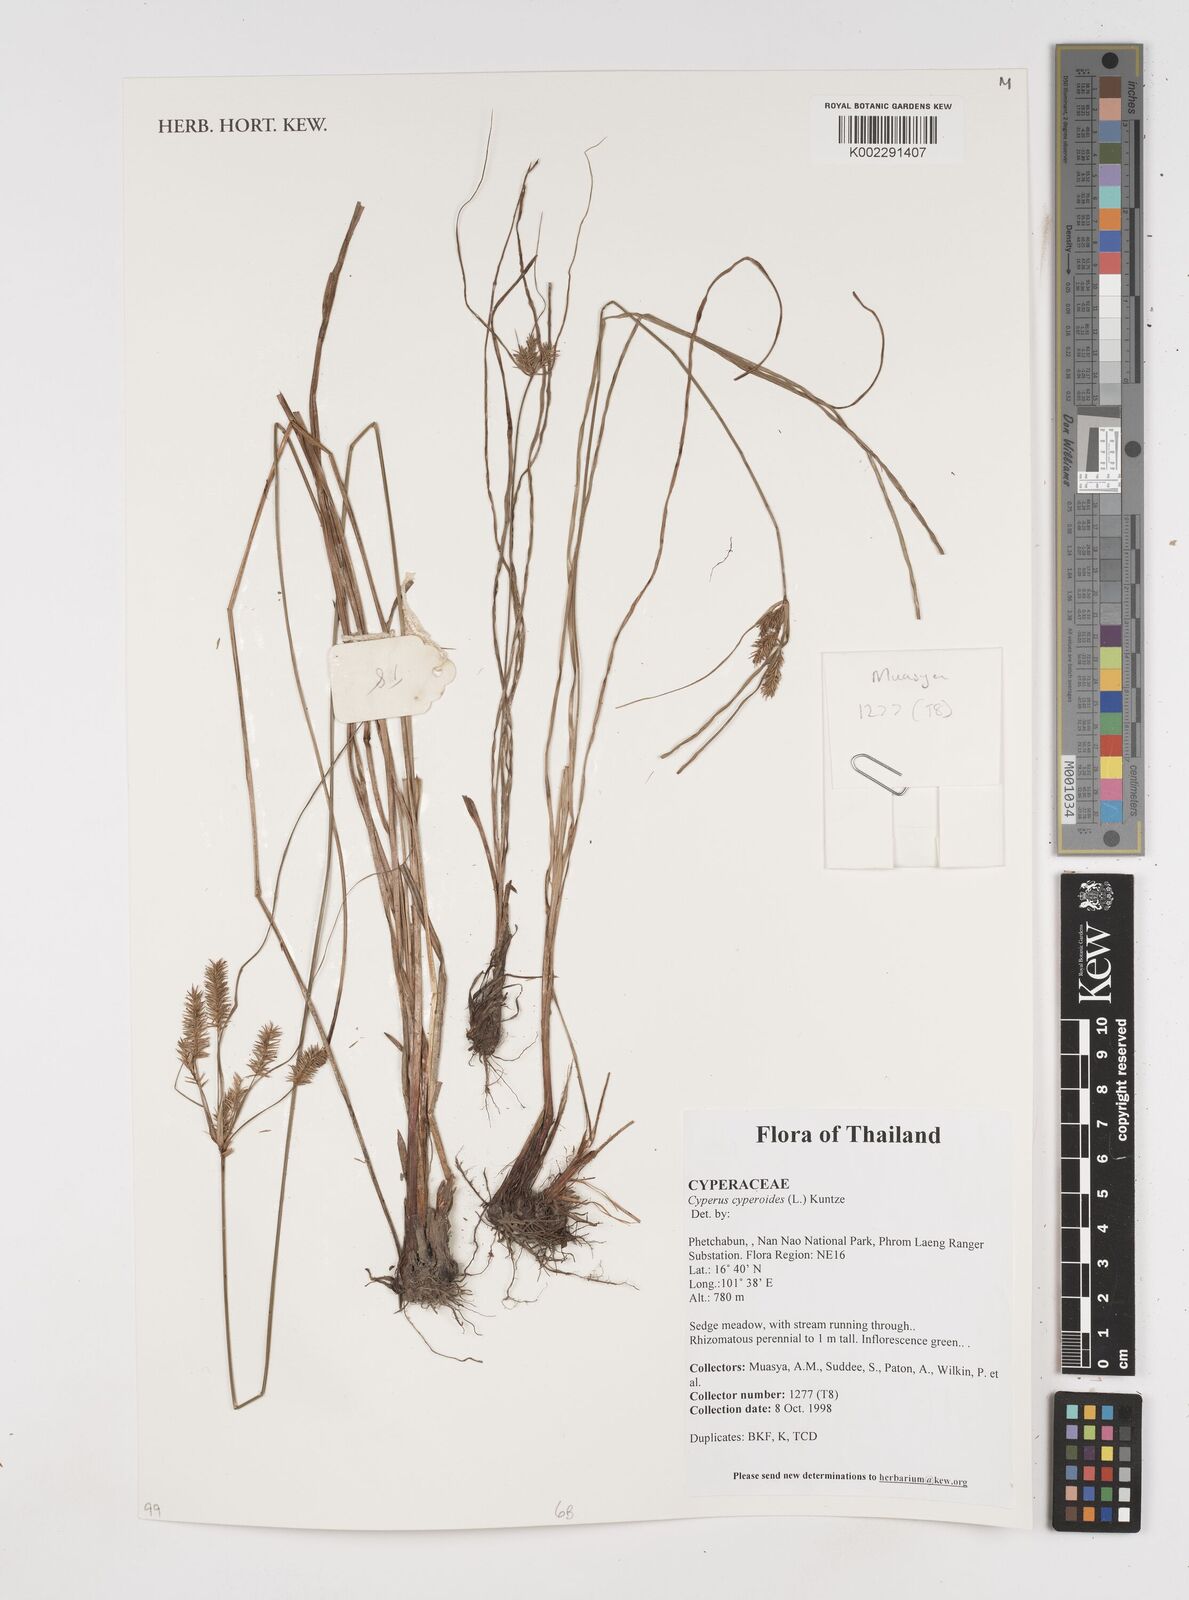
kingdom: Plantae
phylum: Tracheophyta
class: Liliopsida
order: Poales
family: Cyperaceae
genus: Cyperus
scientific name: Cyperus cyperoides
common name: Pacific island flat sedge
